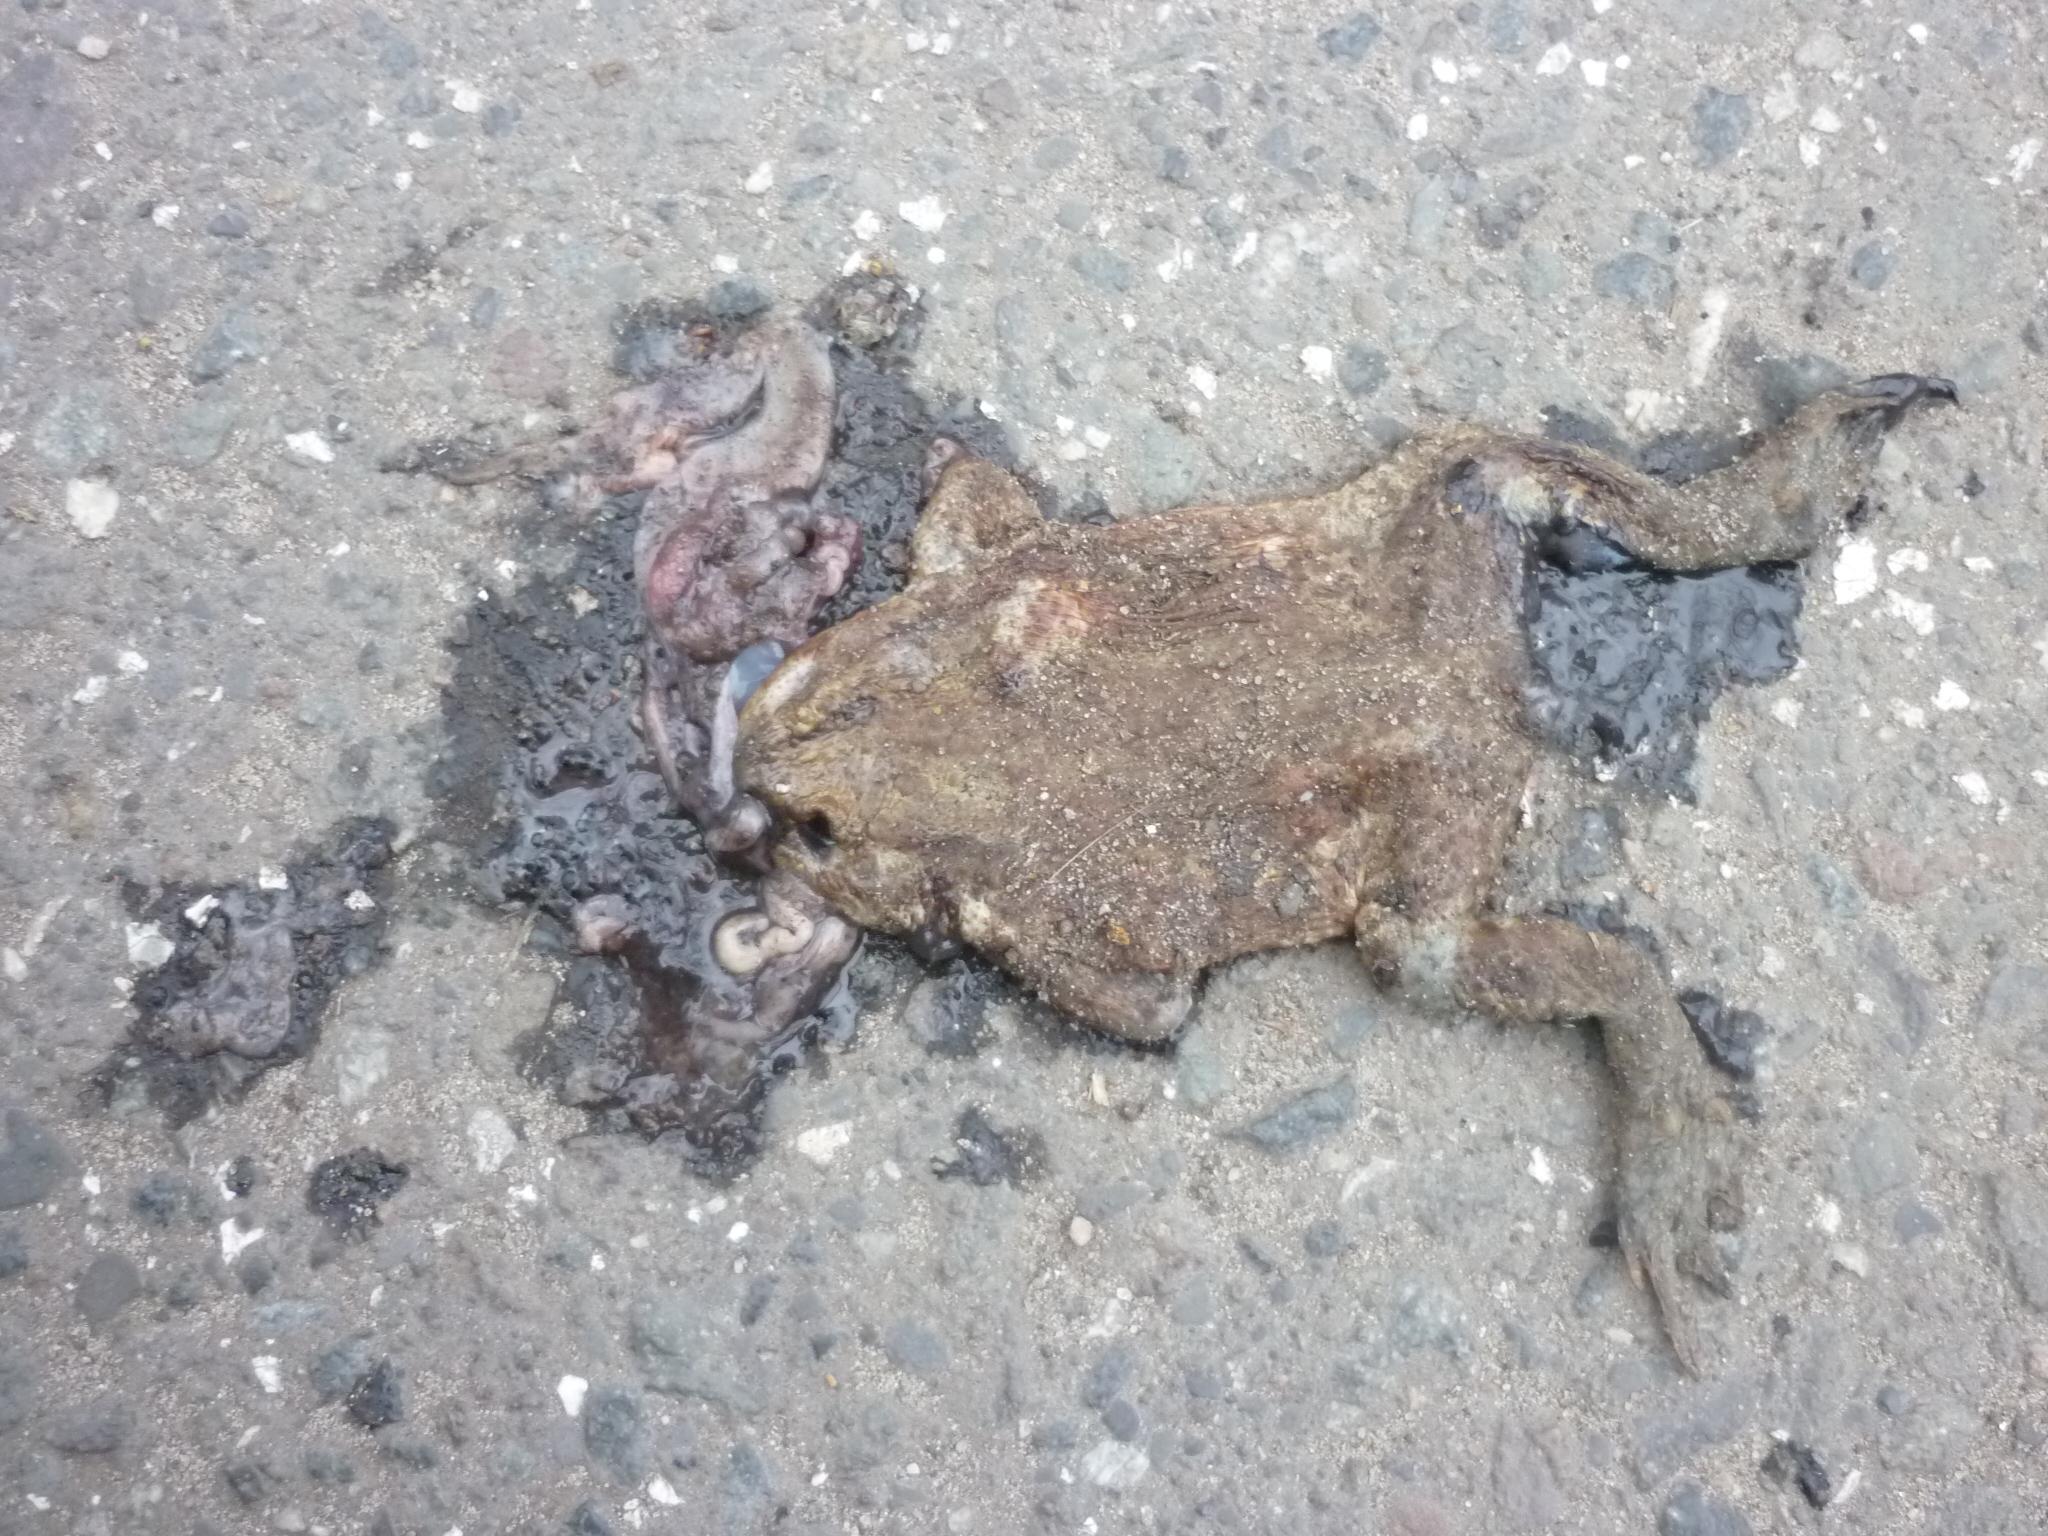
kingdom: Animalia
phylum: Chordata
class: Amphibia
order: Anura
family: Bufonidae
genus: Bufo
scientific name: Bufo bufo
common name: Common toad
